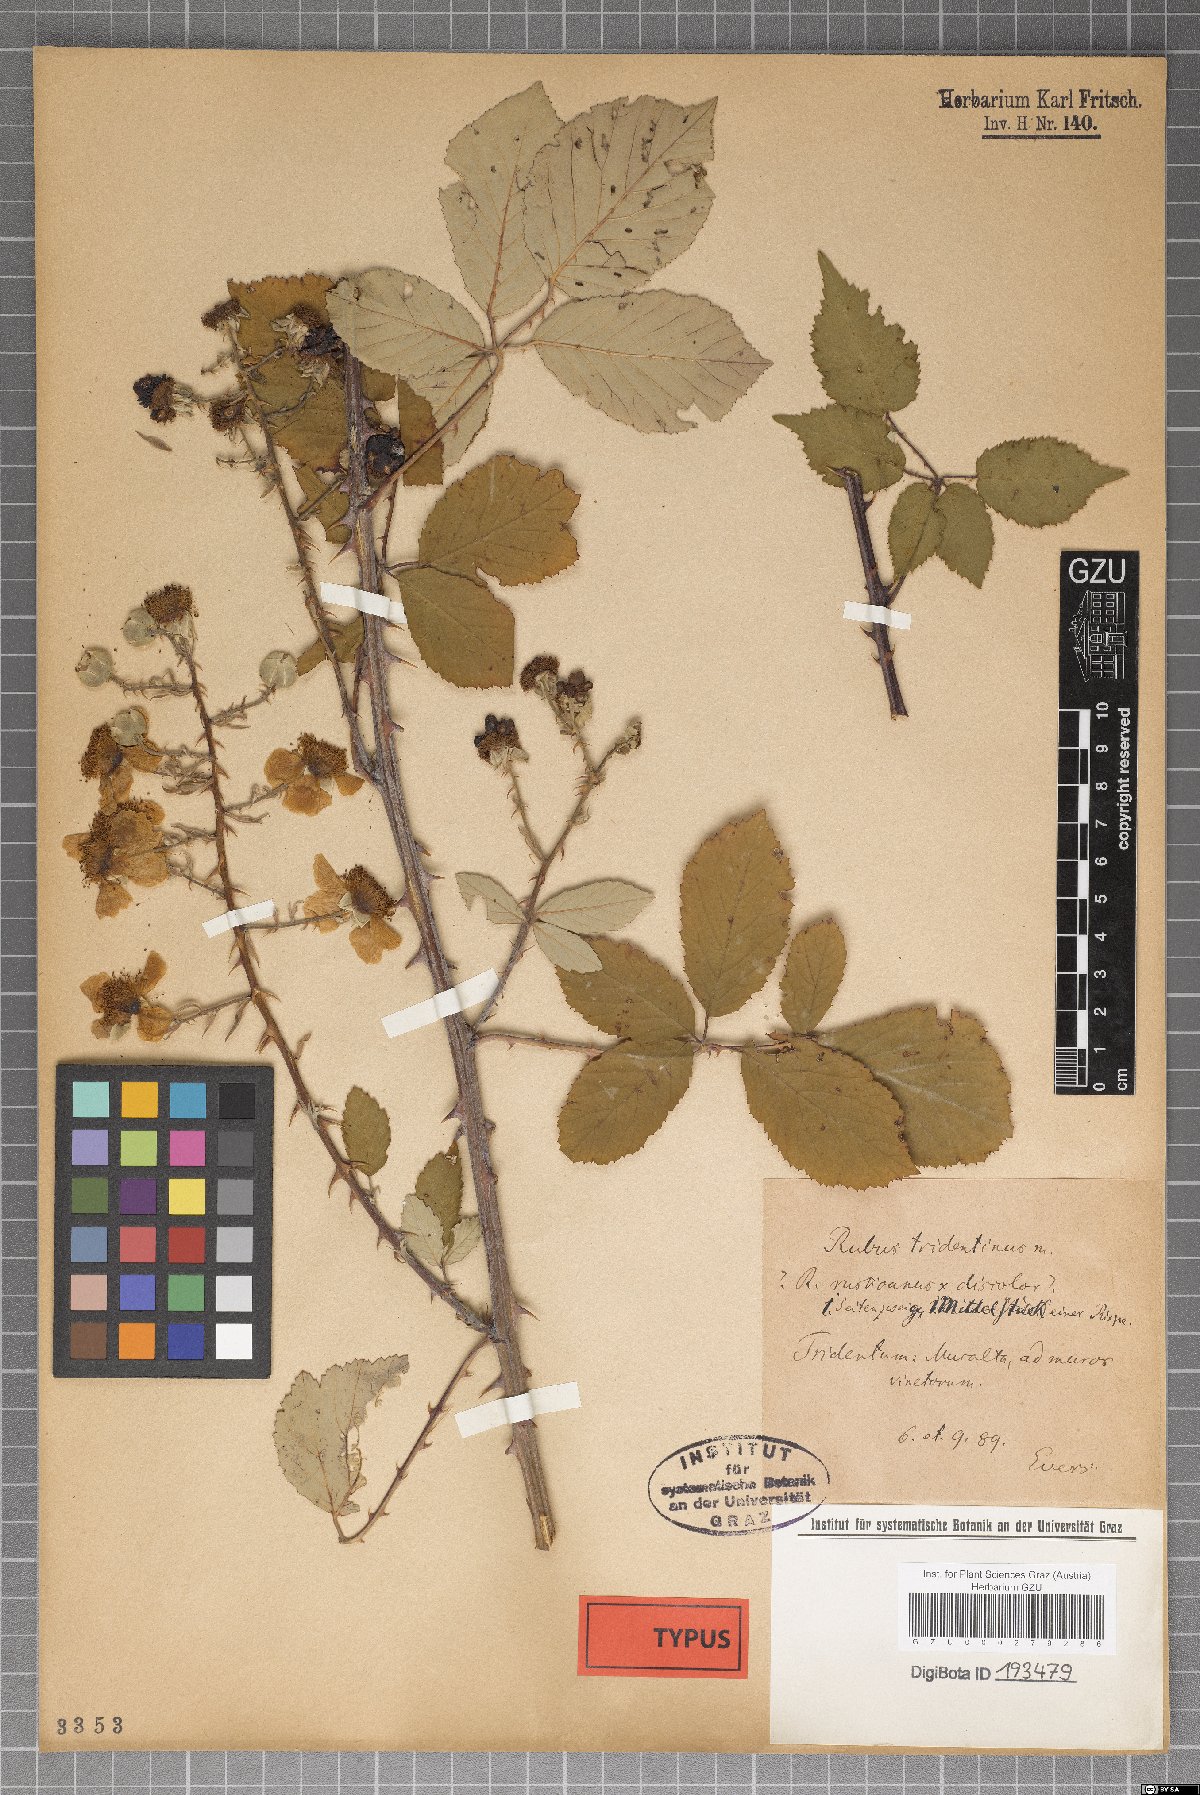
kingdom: Plantae
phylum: Tracheophyta
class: Magnoliopsida
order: Rosales
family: Rosaceae
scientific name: Rosaceae
